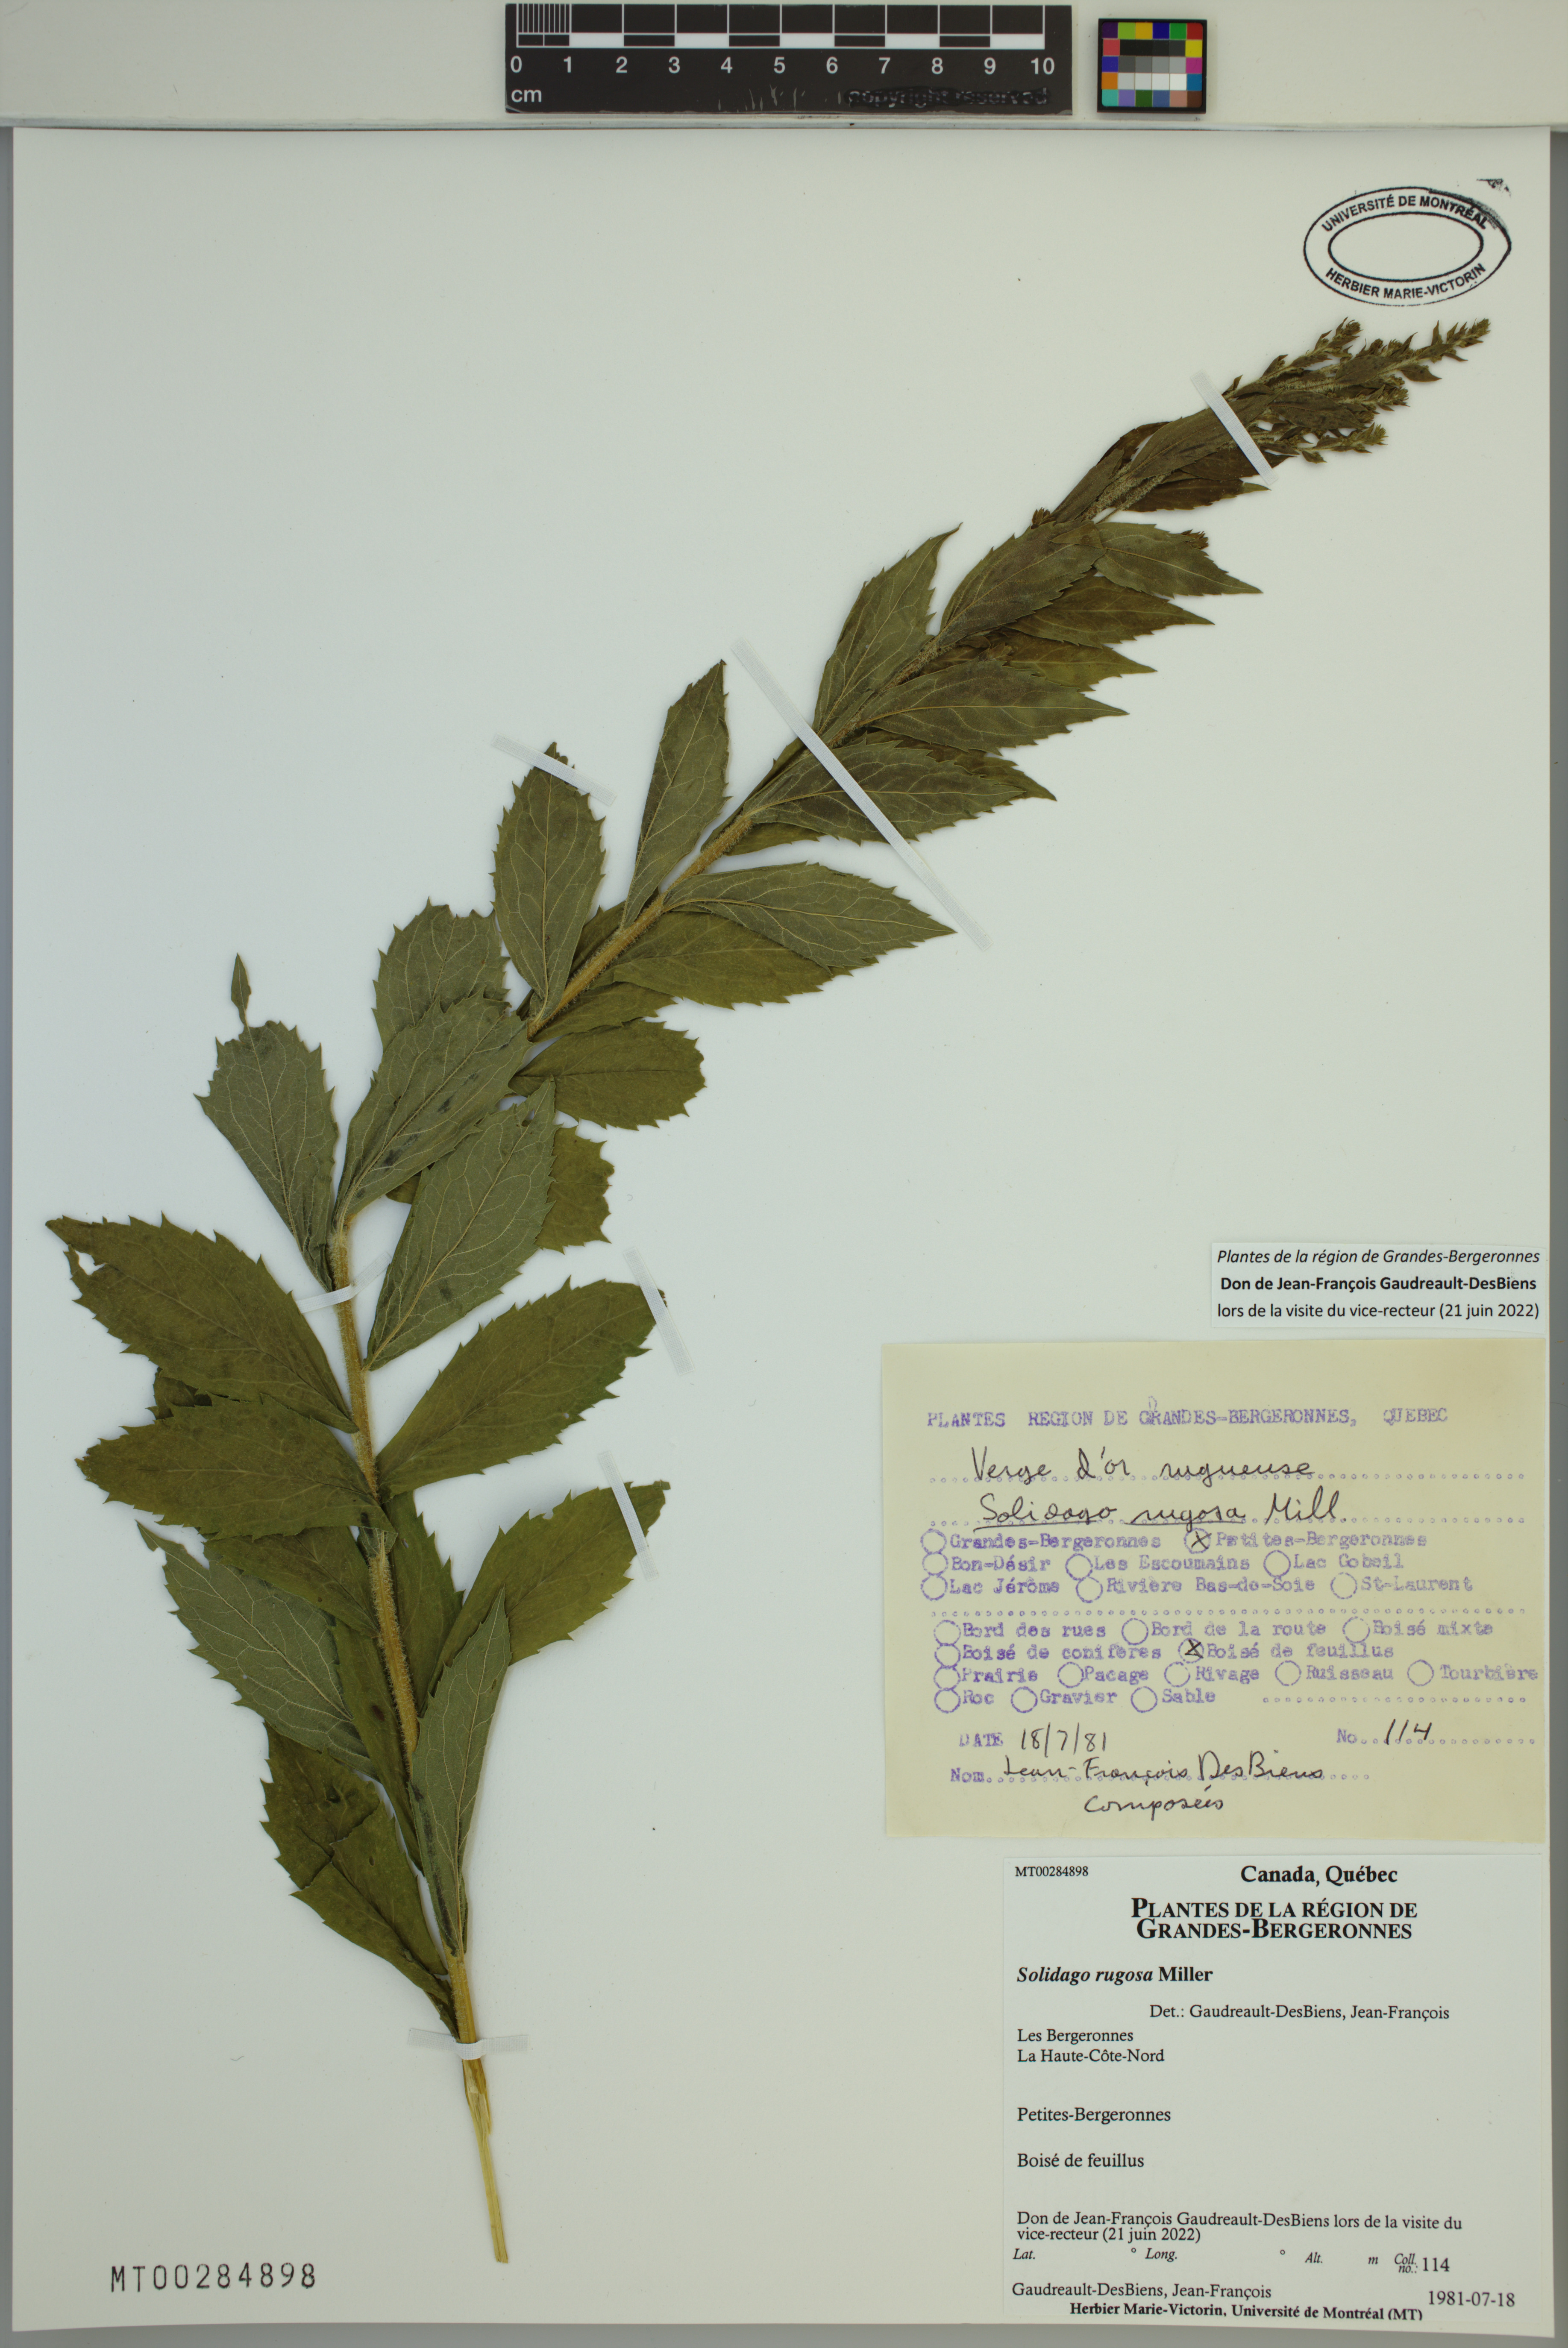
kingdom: Plantae
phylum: Tracheophyta
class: Magnoliopsida
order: Asterales
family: Asteraceae
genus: Solidago
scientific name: Solidago rugosa
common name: Rough-stemmed goldenrod
